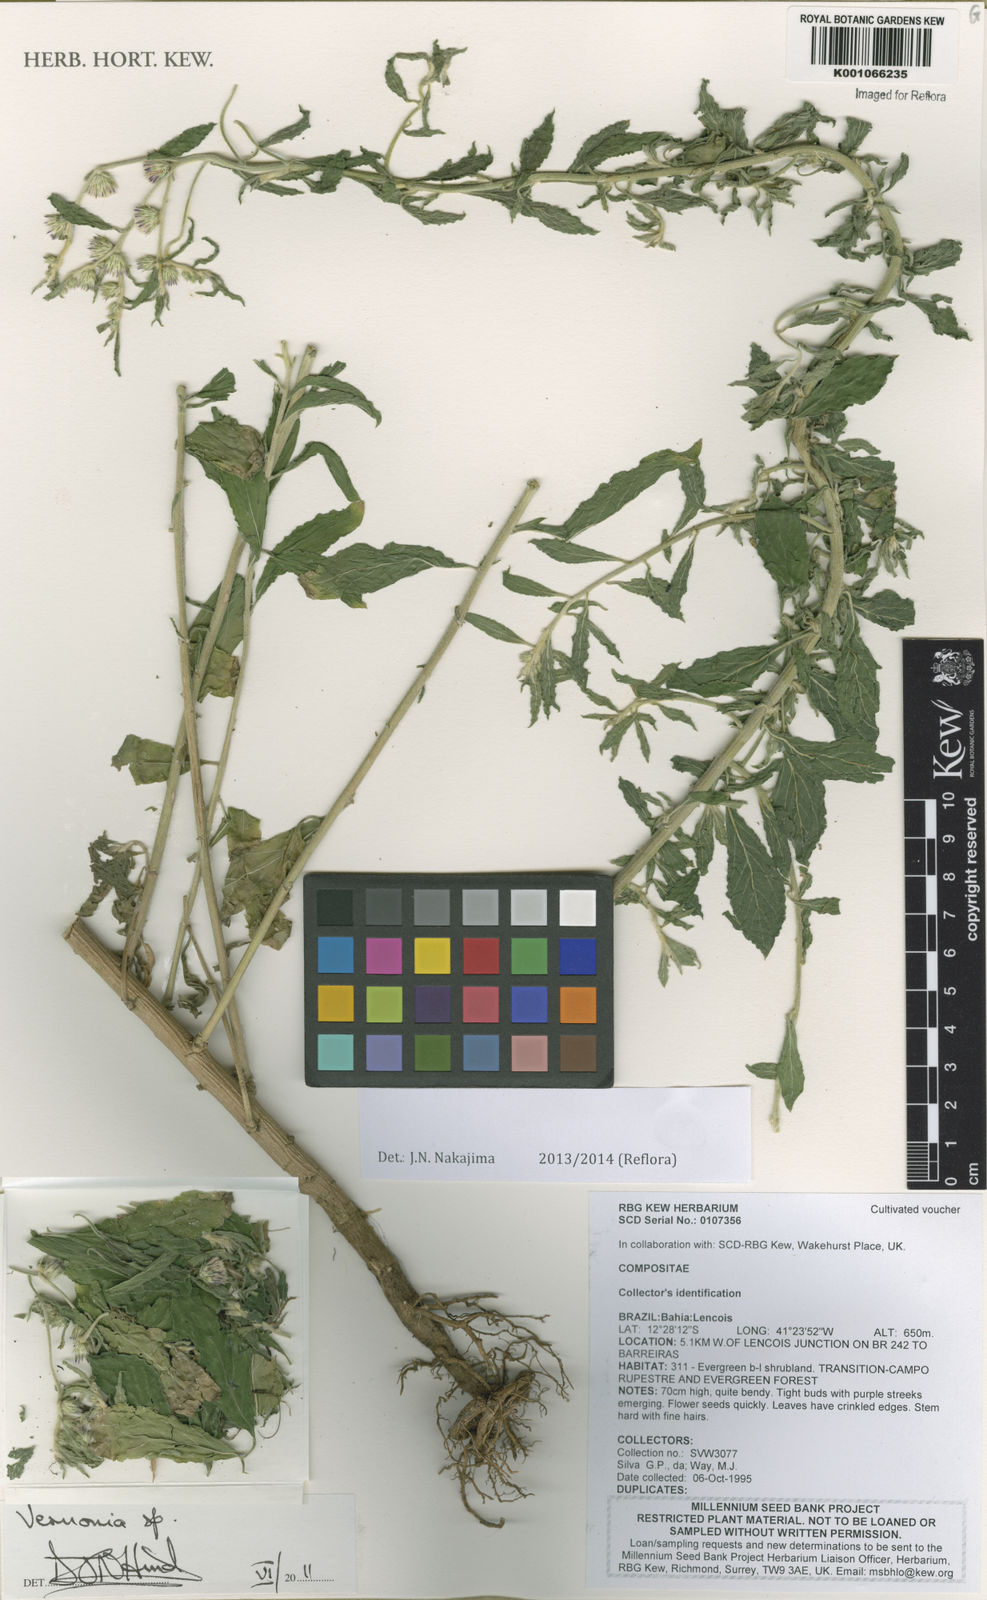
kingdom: Plantae
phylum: Tracheophyta
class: Magnoliopsida
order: Asterales
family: Asteraceae
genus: Lepidaploa
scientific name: Lepidaploa salzmannii
